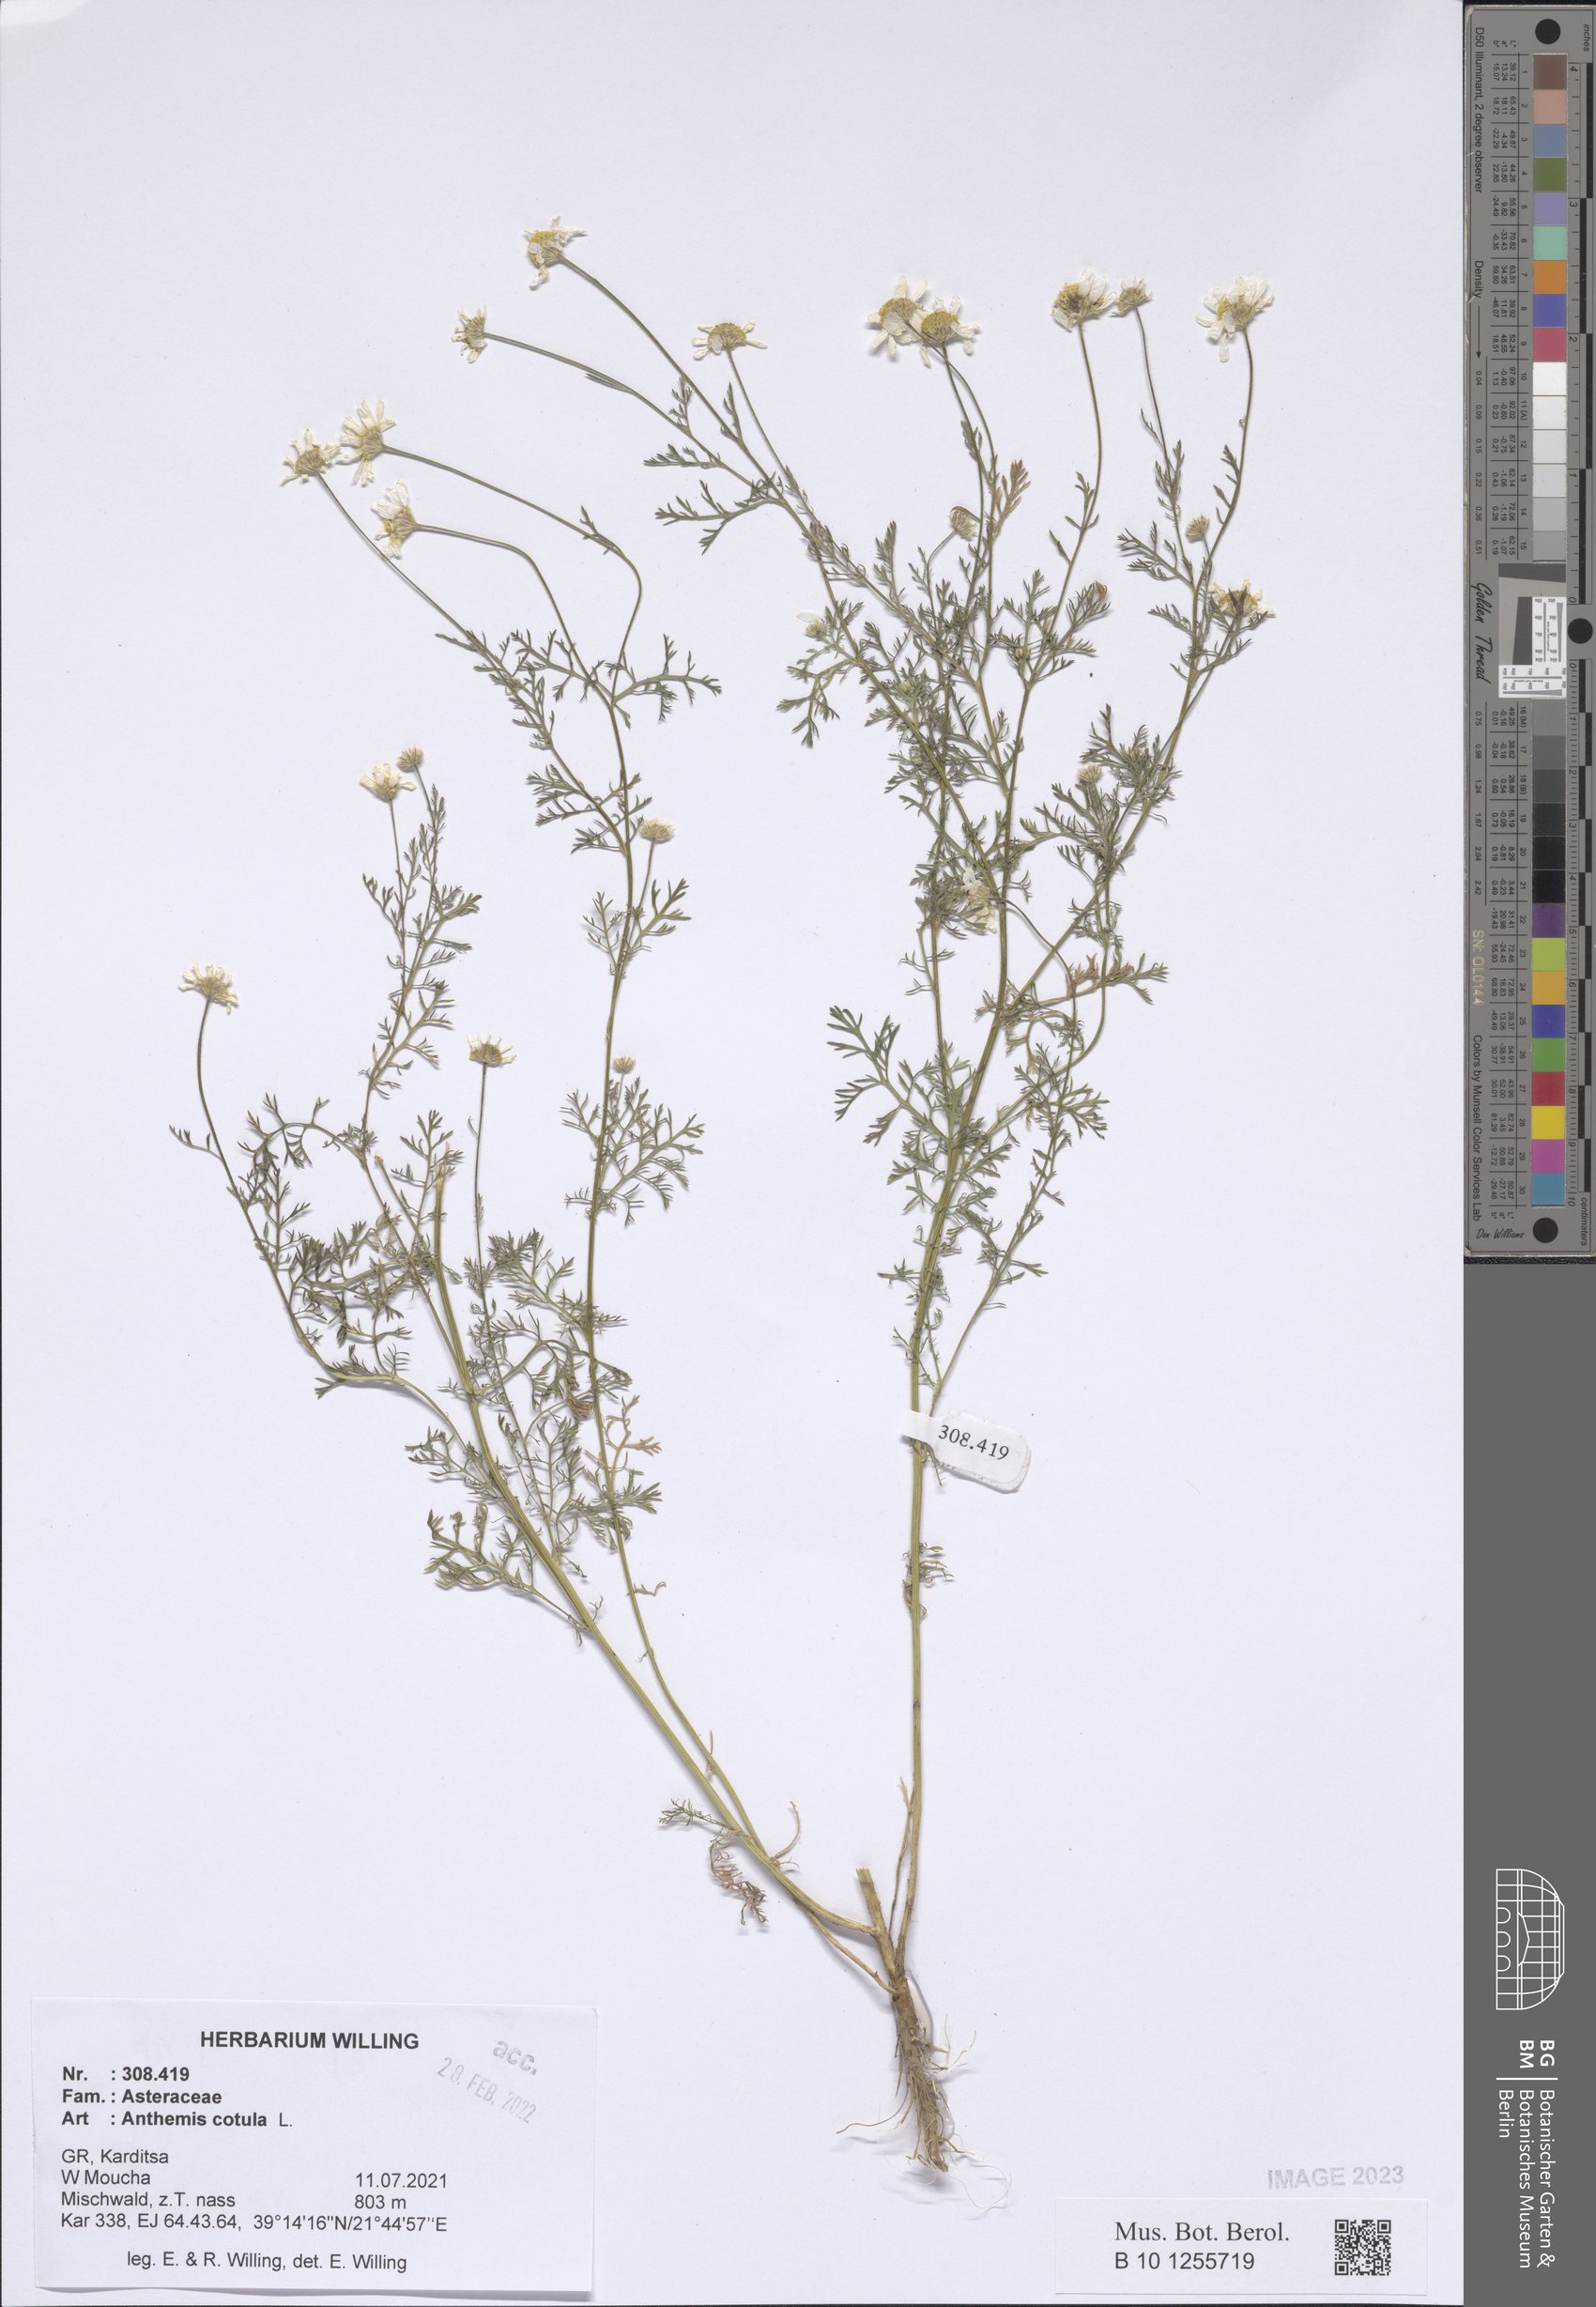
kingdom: Plantae
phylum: Tracheophyta
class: Magnoliopsida
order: Asterales
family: Asteraceae
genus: Anthemis
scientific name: Anthemis cotula
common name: Stinking chamomile
